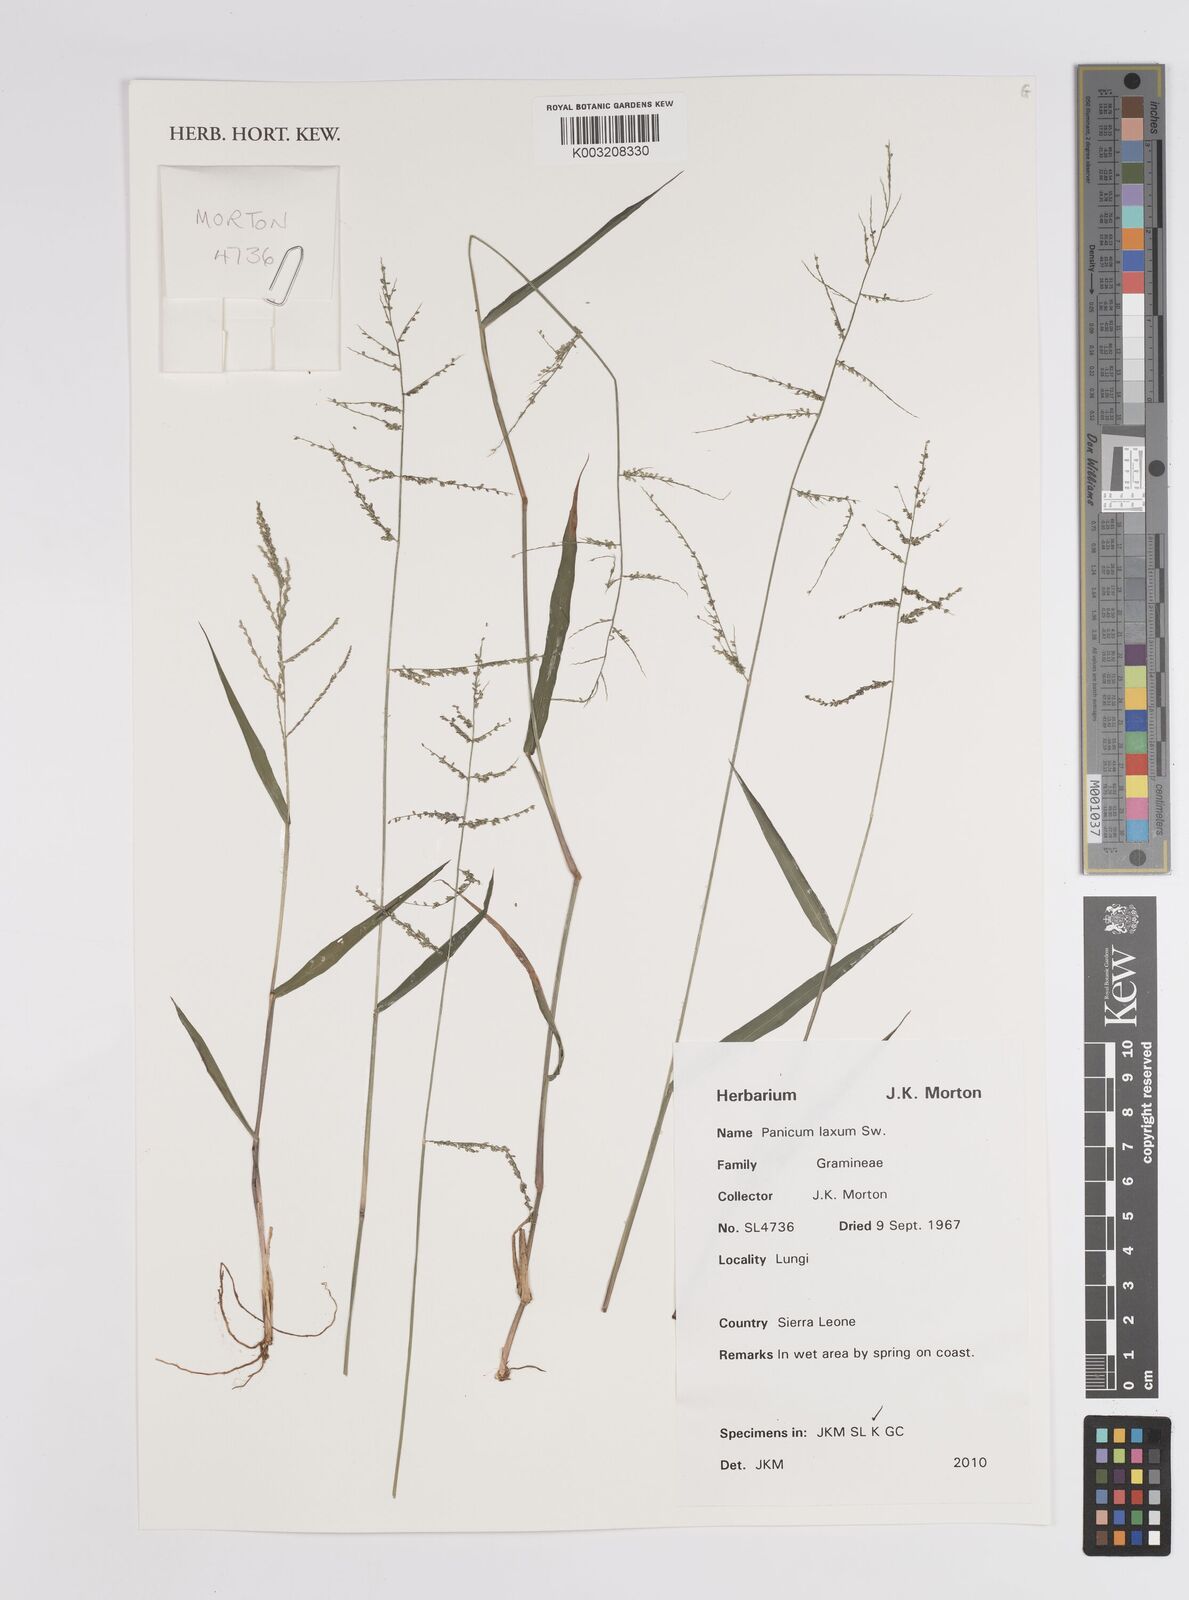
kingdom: Plantae
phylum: Tracheophyta
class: Liliopsida
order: Poales
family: Poaceae
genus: Steinchisma
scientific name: Steinchisma laxum
